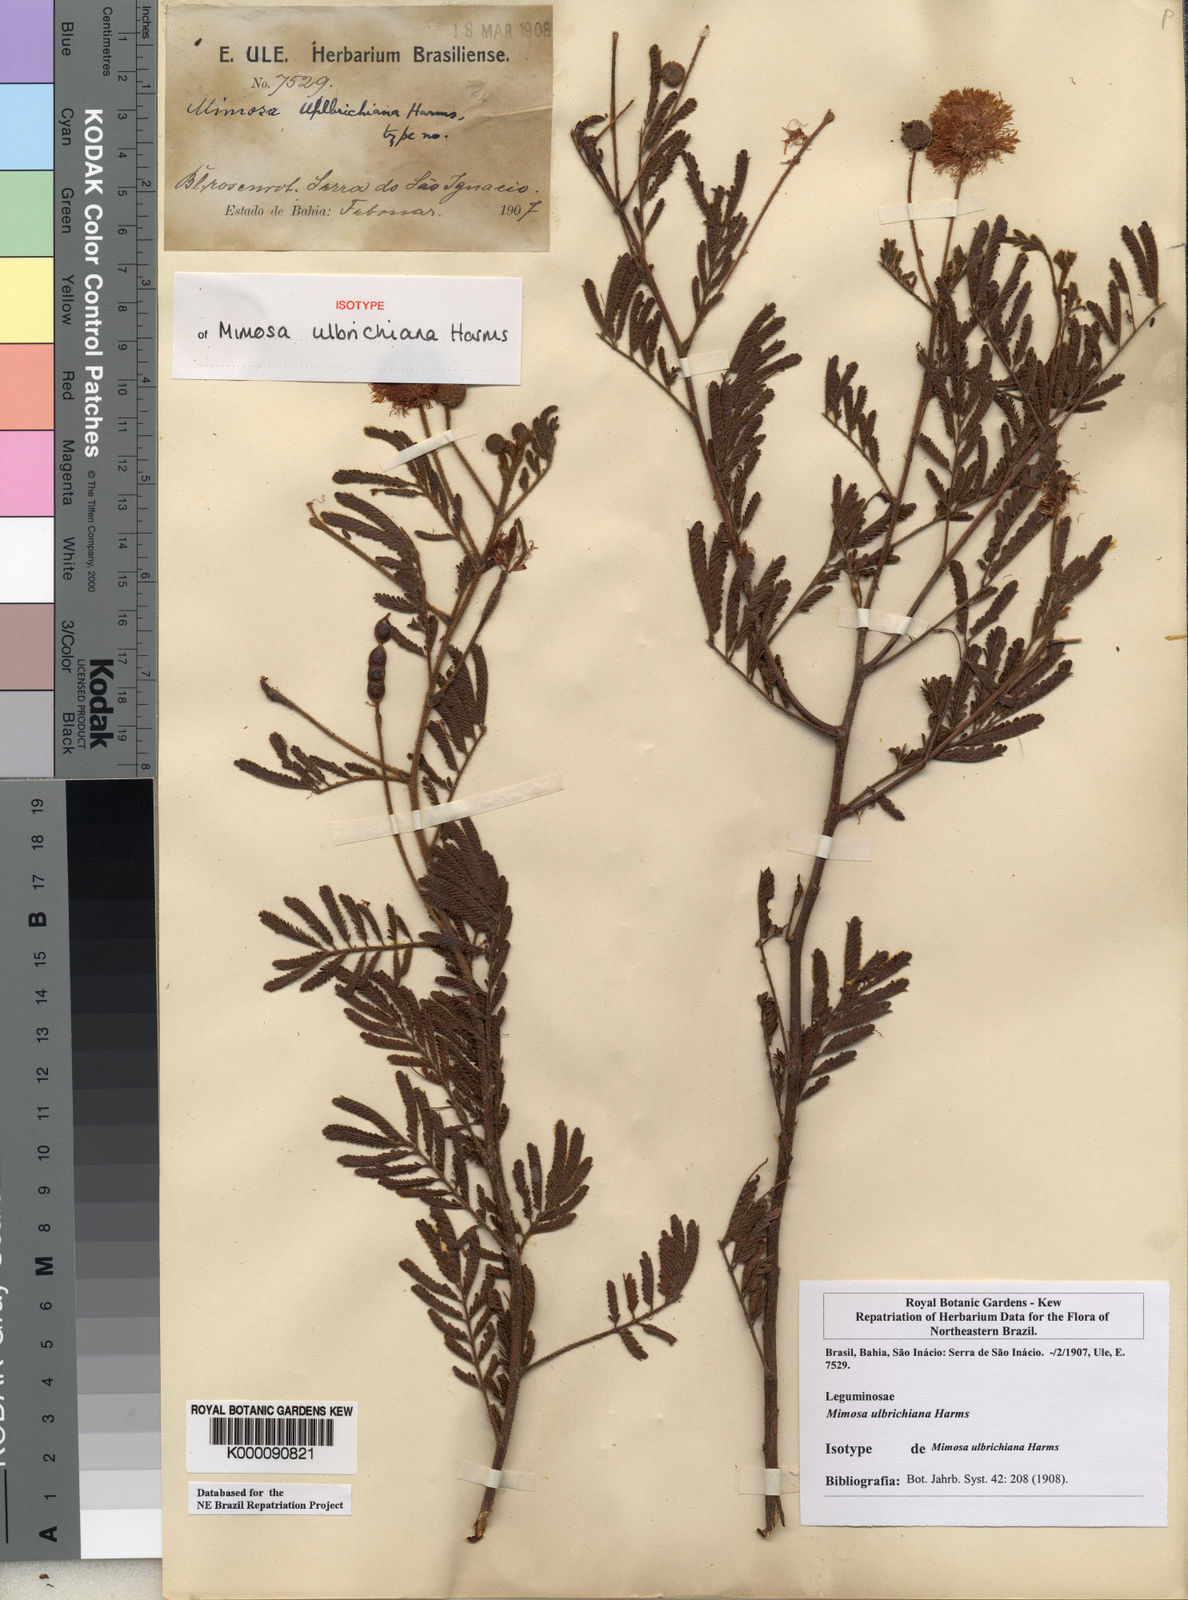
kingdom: Plantae
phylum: Tracheophyta
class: Magnoliopsida
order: Fabales
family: Fabaceae
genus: Mimosa
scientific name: Mimosa ulbrichiana
